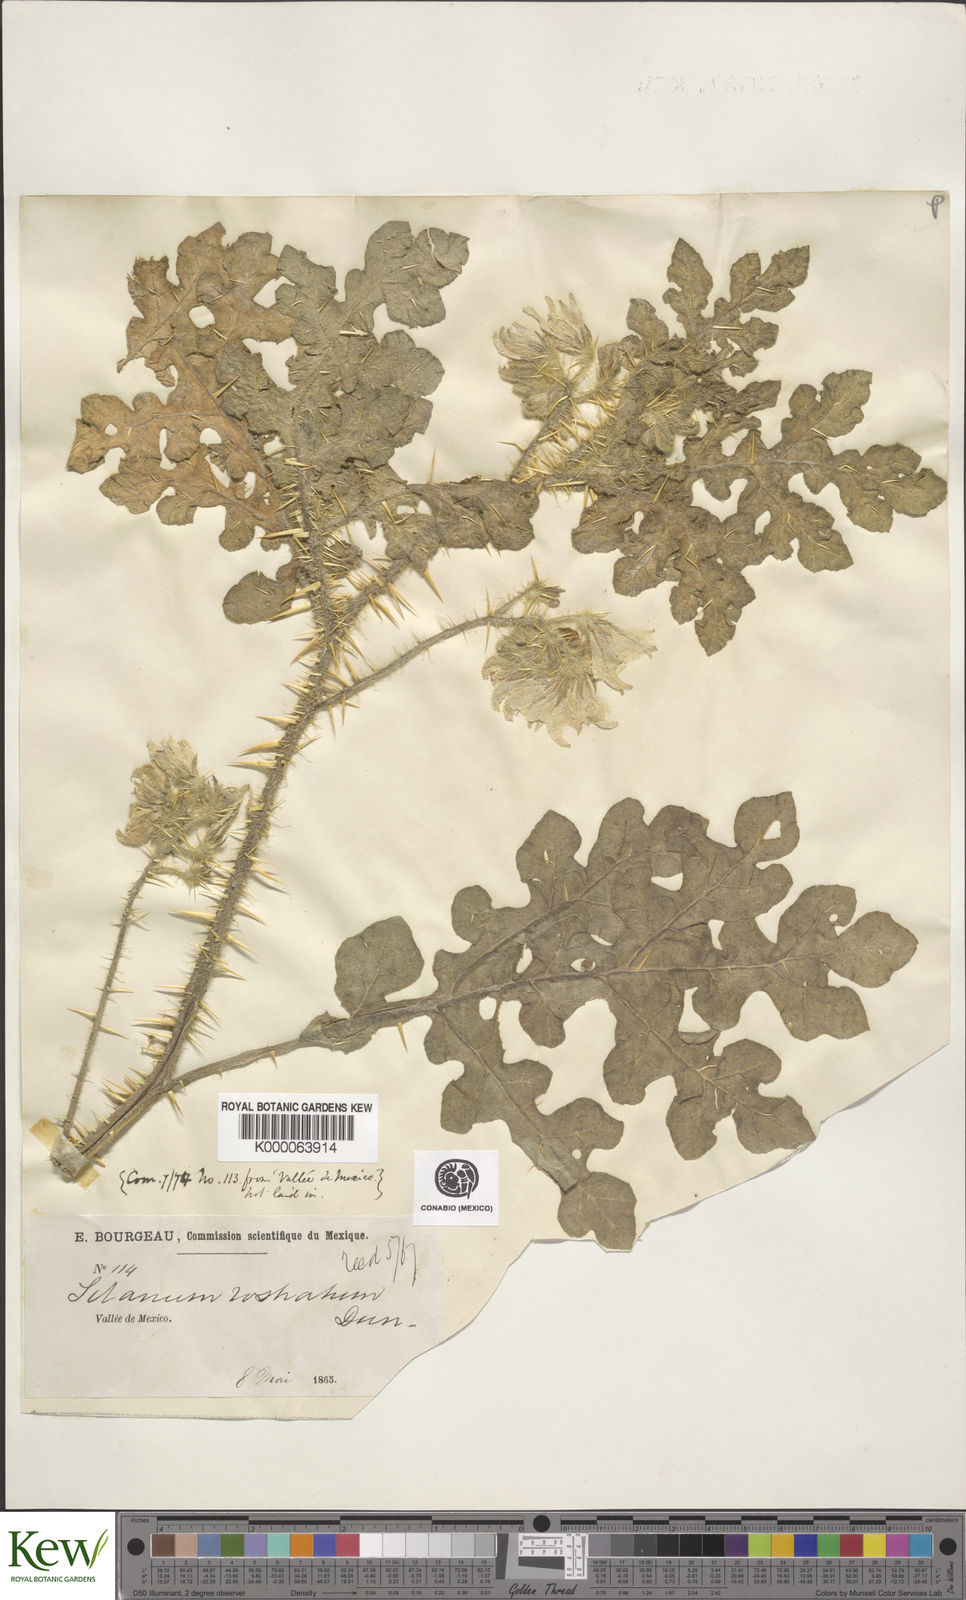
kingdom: Plantae
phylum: Tracheophyta
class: Magnoliopsida
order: Solanales
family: Solanaceae
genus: Solanum
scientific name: Solanum angustifolium
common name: Buffalobur nightshade
